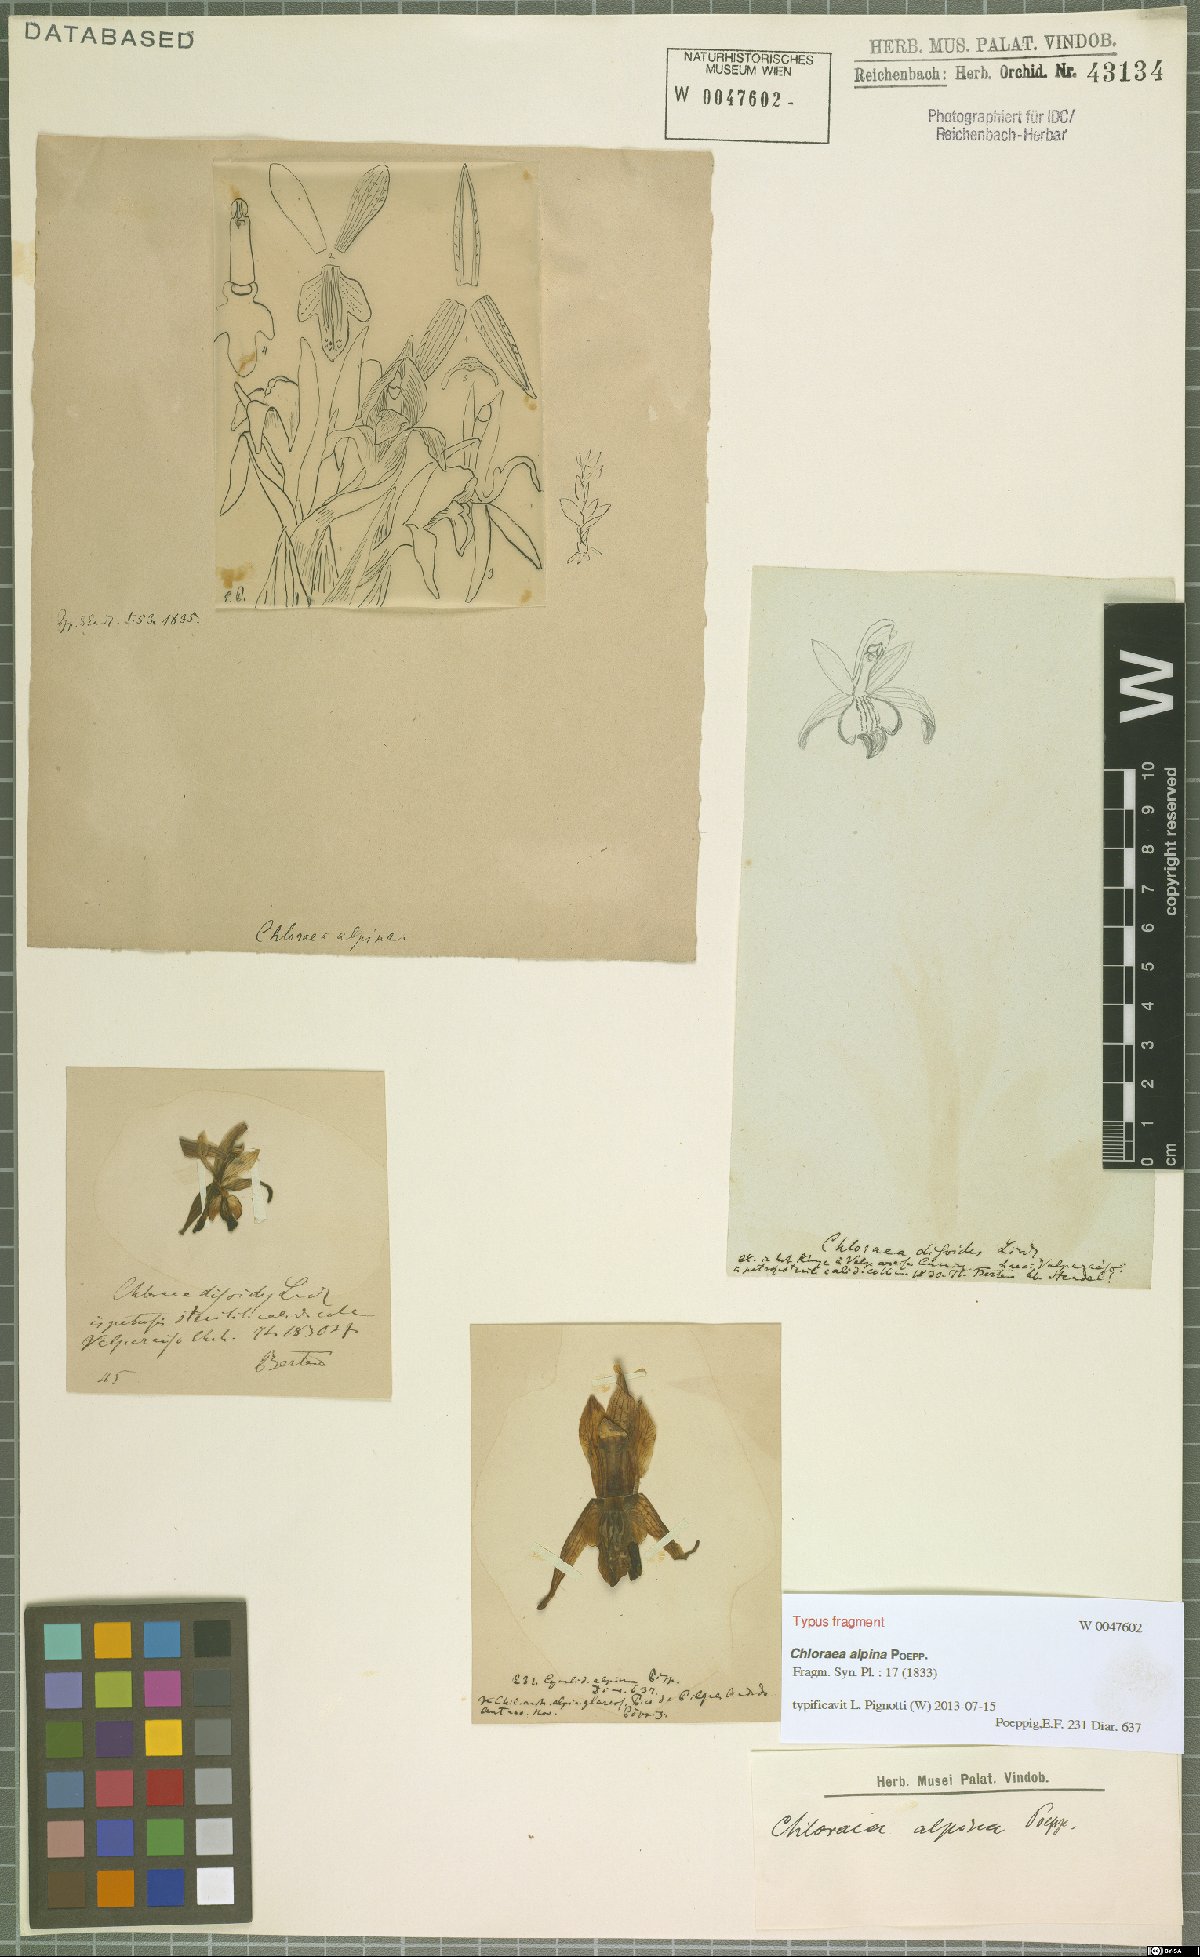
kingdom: Plantae
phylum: Tracheophyta
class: Liliopsida
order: Asparagales
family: Orchidaceae
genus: Chloraea
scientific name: Chloraea alpina
